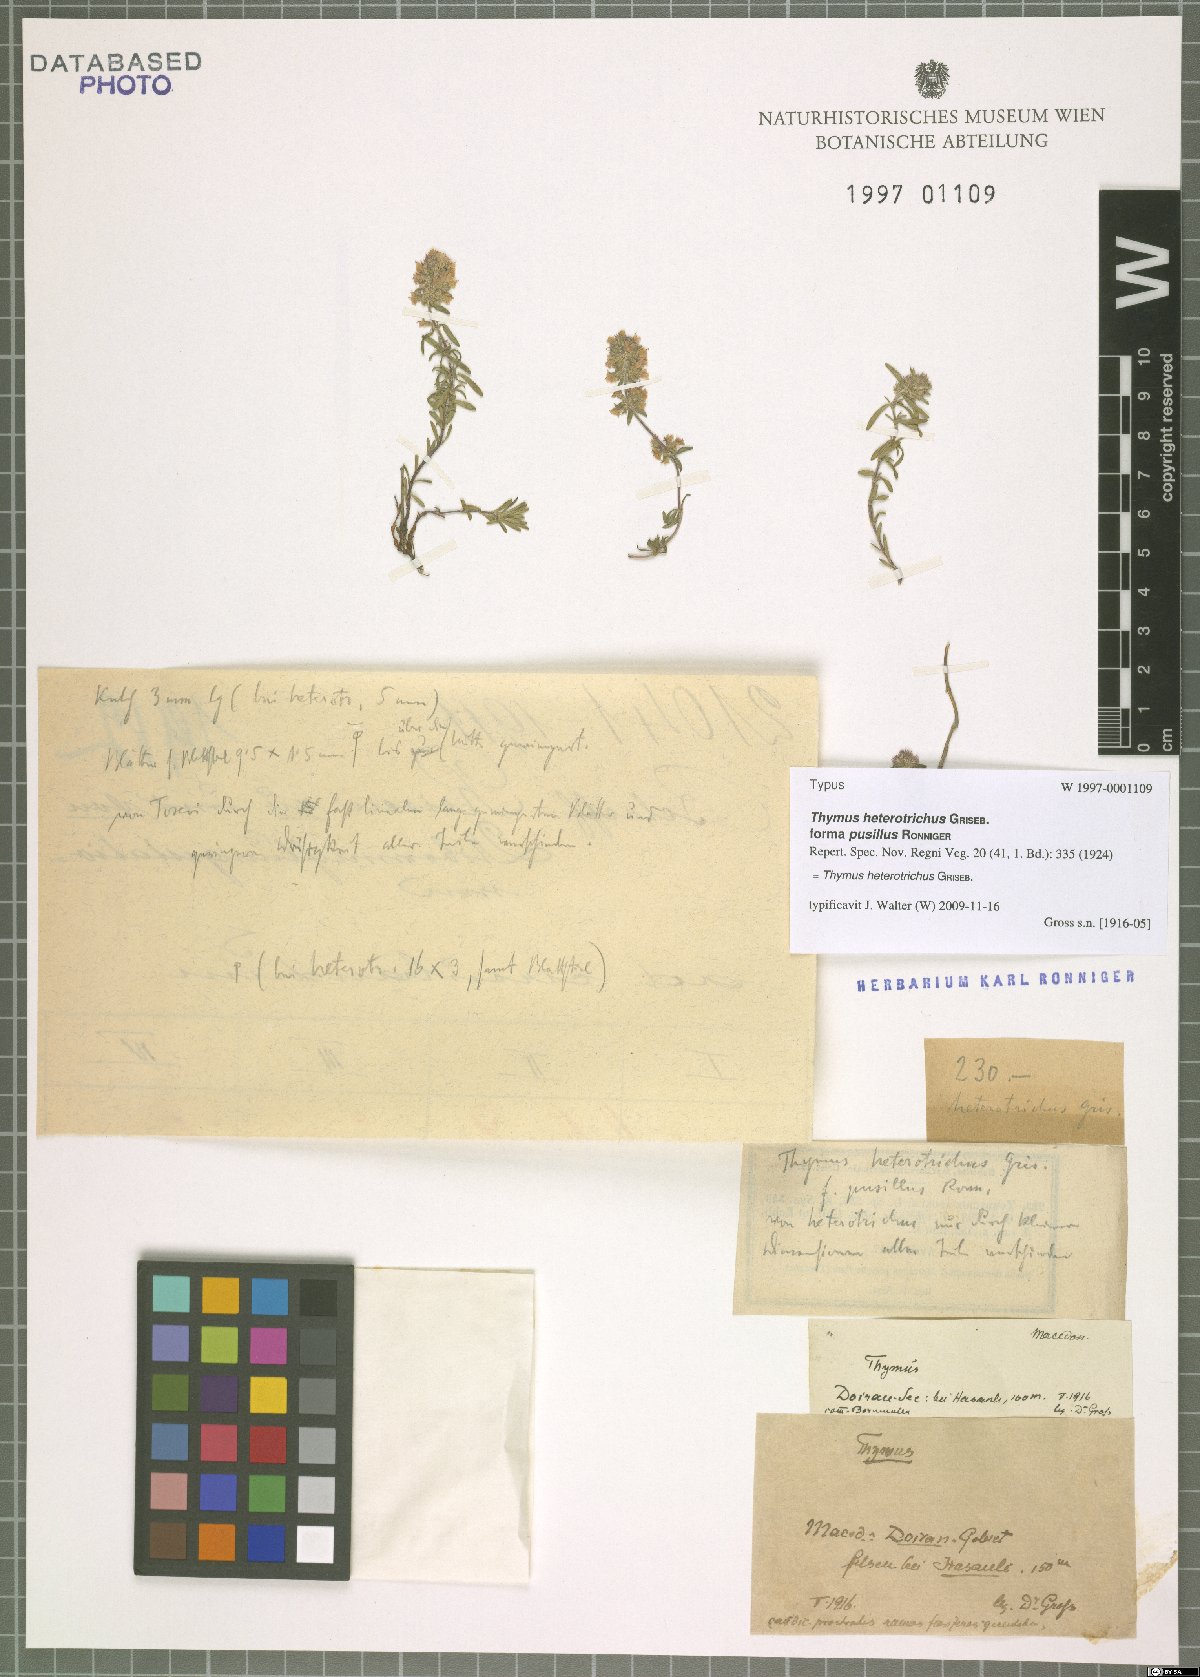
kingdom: Plantae
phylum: Tracheophyta
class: Magnoliopsida
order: Lamiales
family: Lamiaceae
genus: Thymus
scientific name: Thymus sibthorpii
